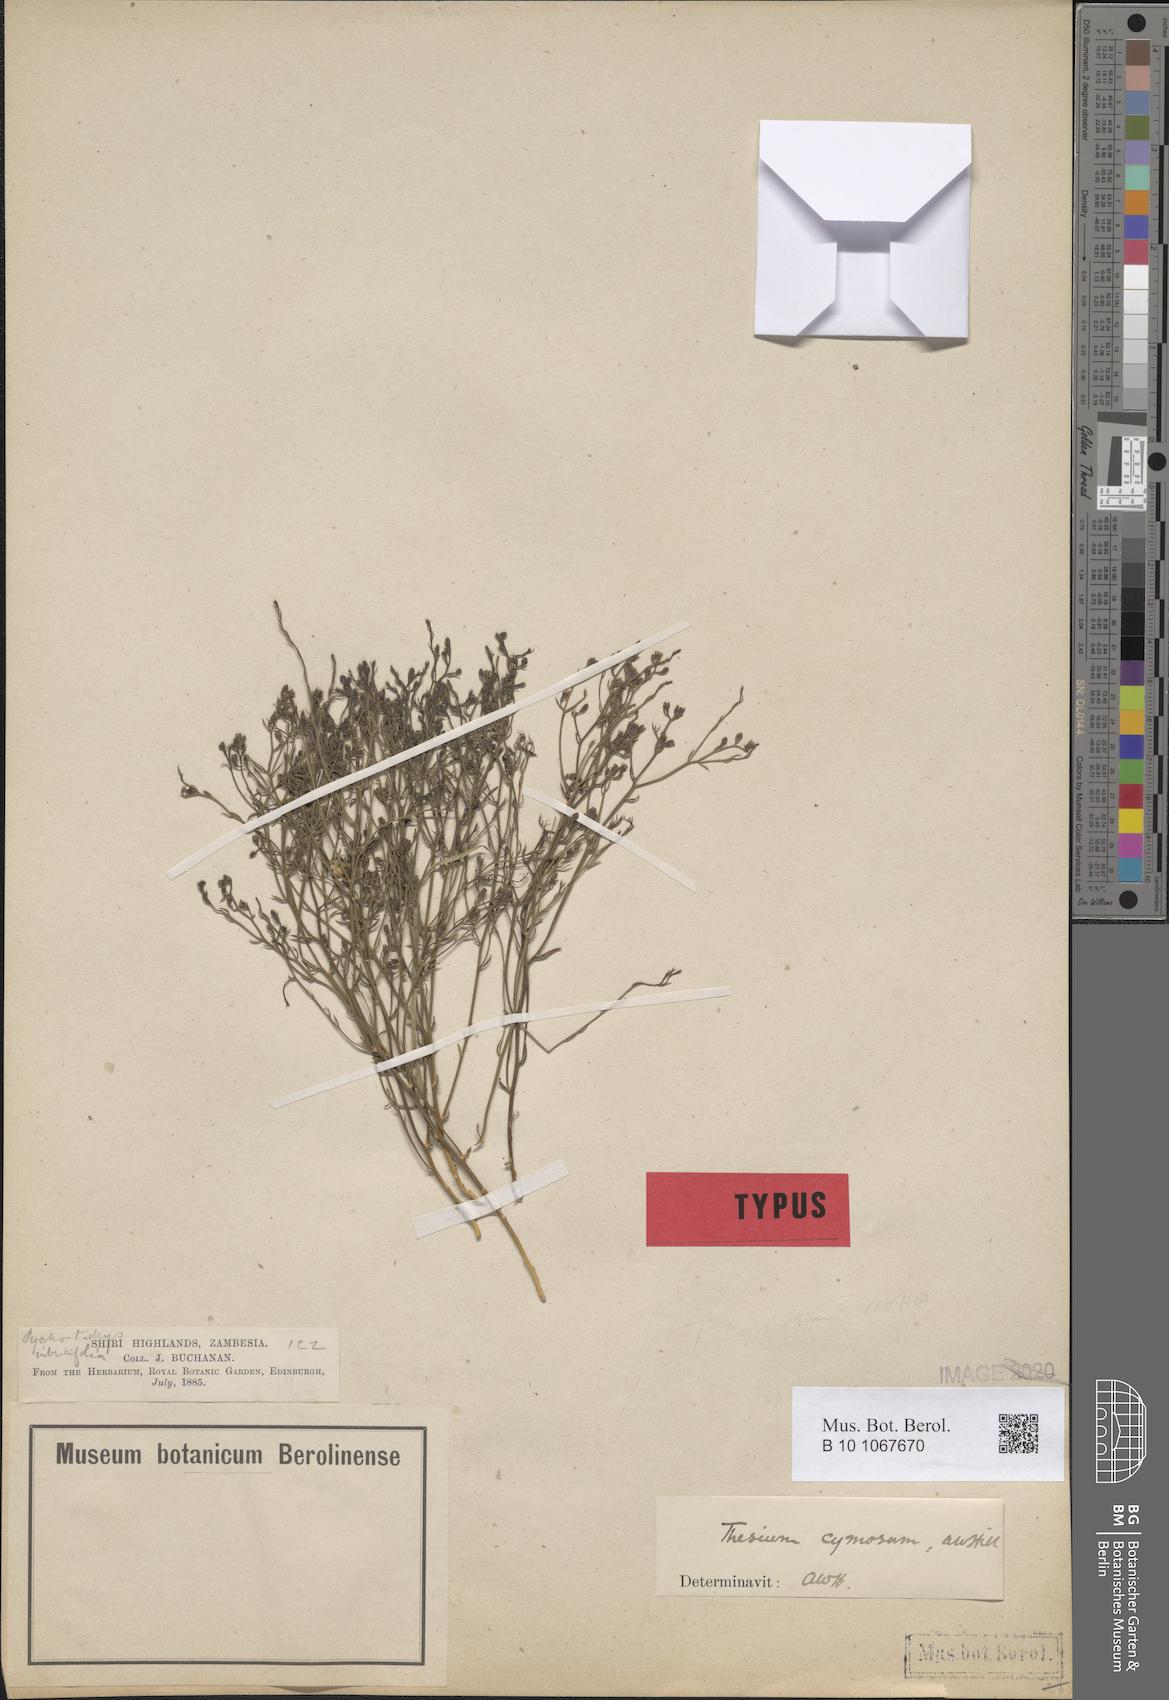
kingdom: Plantae
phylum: Tracheophyta
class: Magnoliopsida
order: Santalales
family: Thesiaceae
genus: Thesium
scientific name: Thesium cymosum
